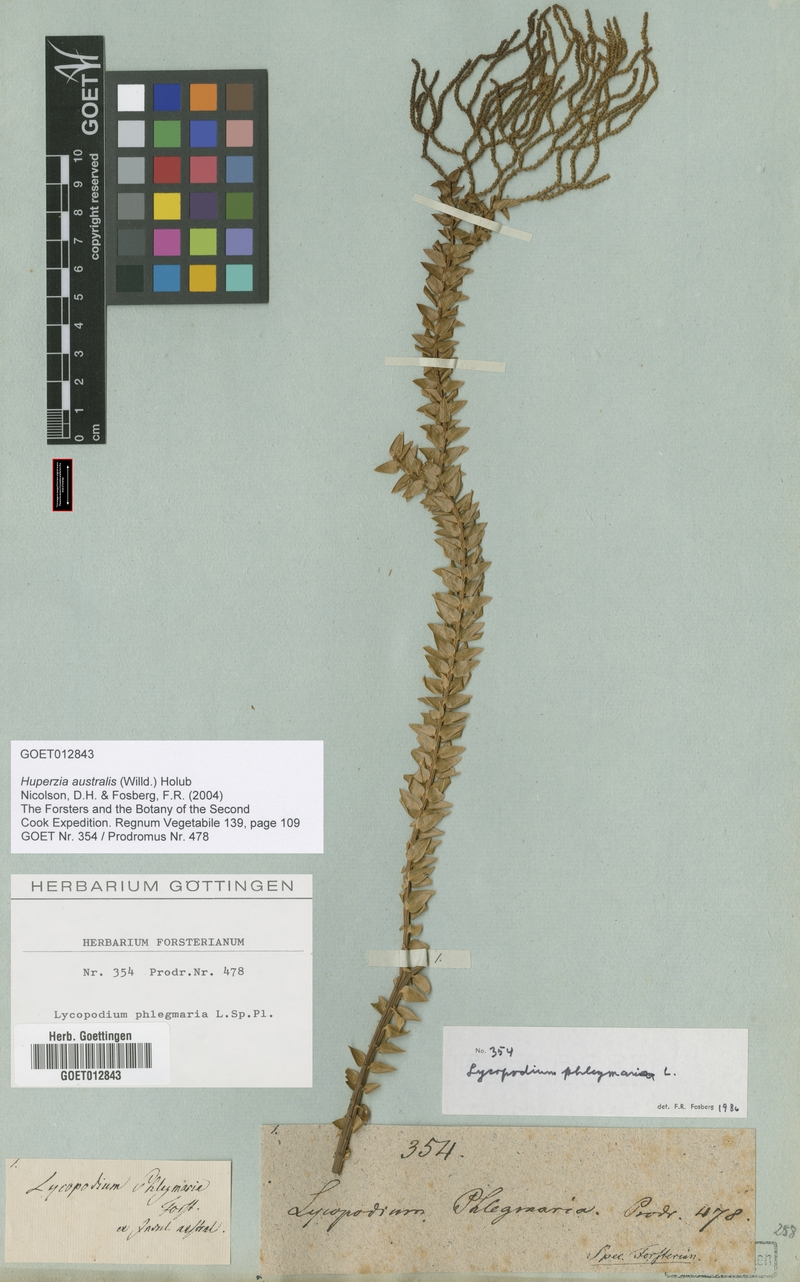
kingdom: Plantae
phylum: Tracheophyta
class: Lycopodiopsida
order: Lycopodiales
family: Lycopodiaceae
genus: Phlegmariurus
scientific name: Phlegmariurus australis
